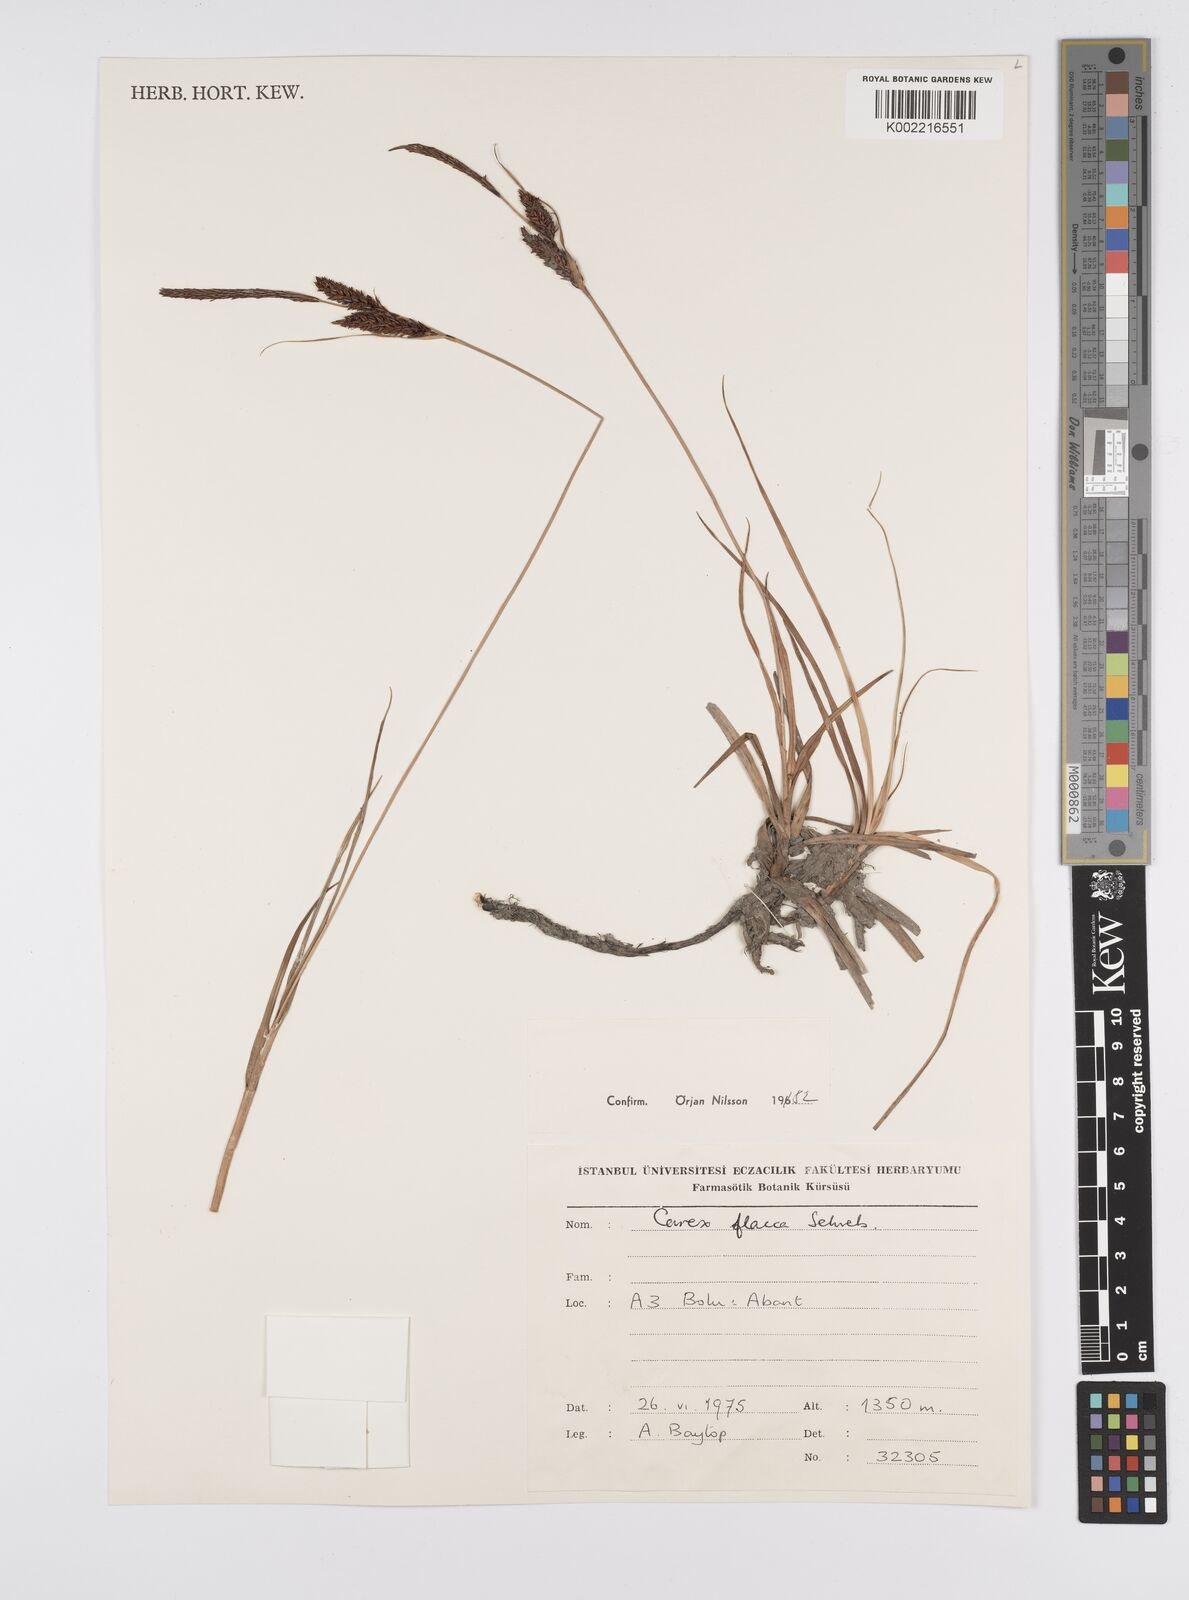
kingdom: Plantae
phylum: Tracheophyta
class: Liliopsida
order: Poales
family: Cyperaceae
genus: Carex
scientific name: Carex flacca
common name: Glaucous sedge
